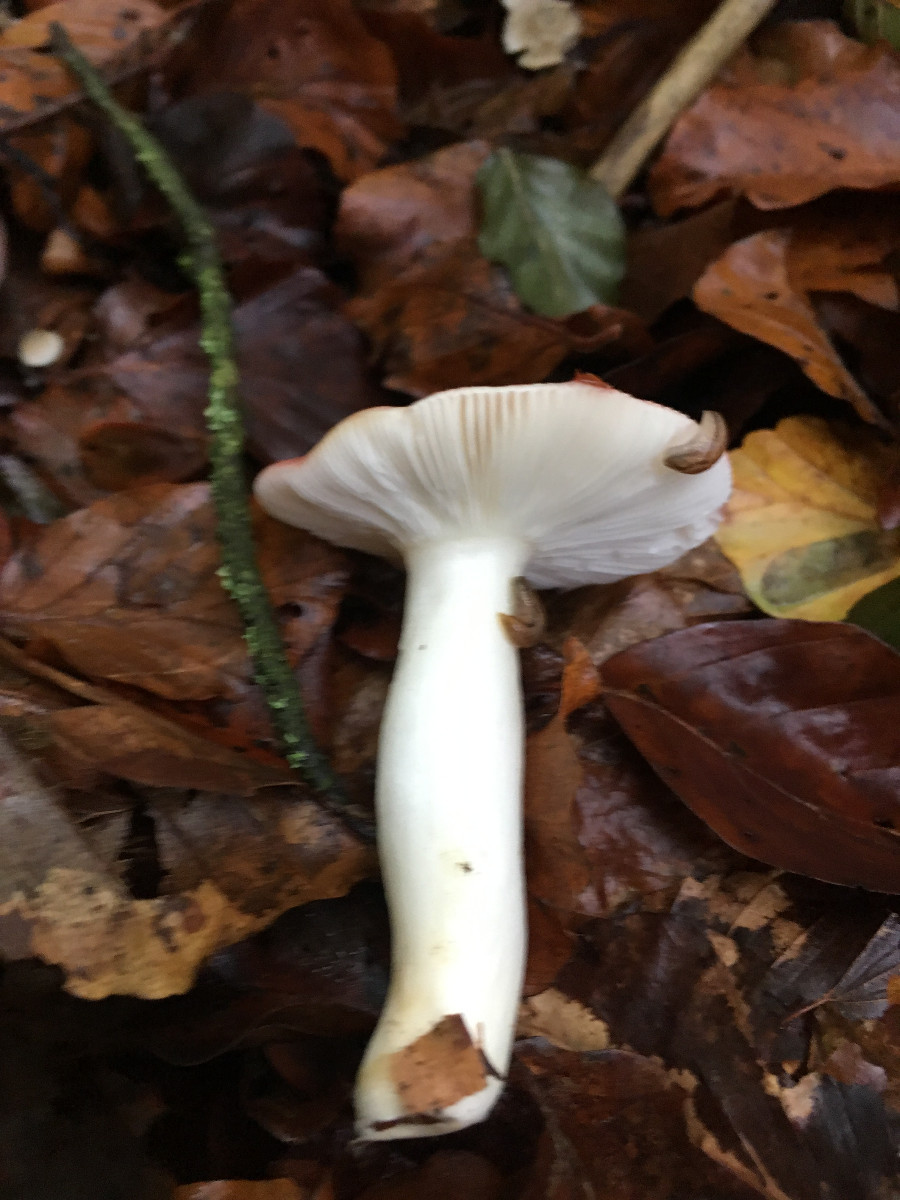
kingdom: Fungi
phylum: Basidiomycota
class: Agaricomycetes
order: Russulales
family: Russulaceae
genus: Russula
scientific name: Russula
